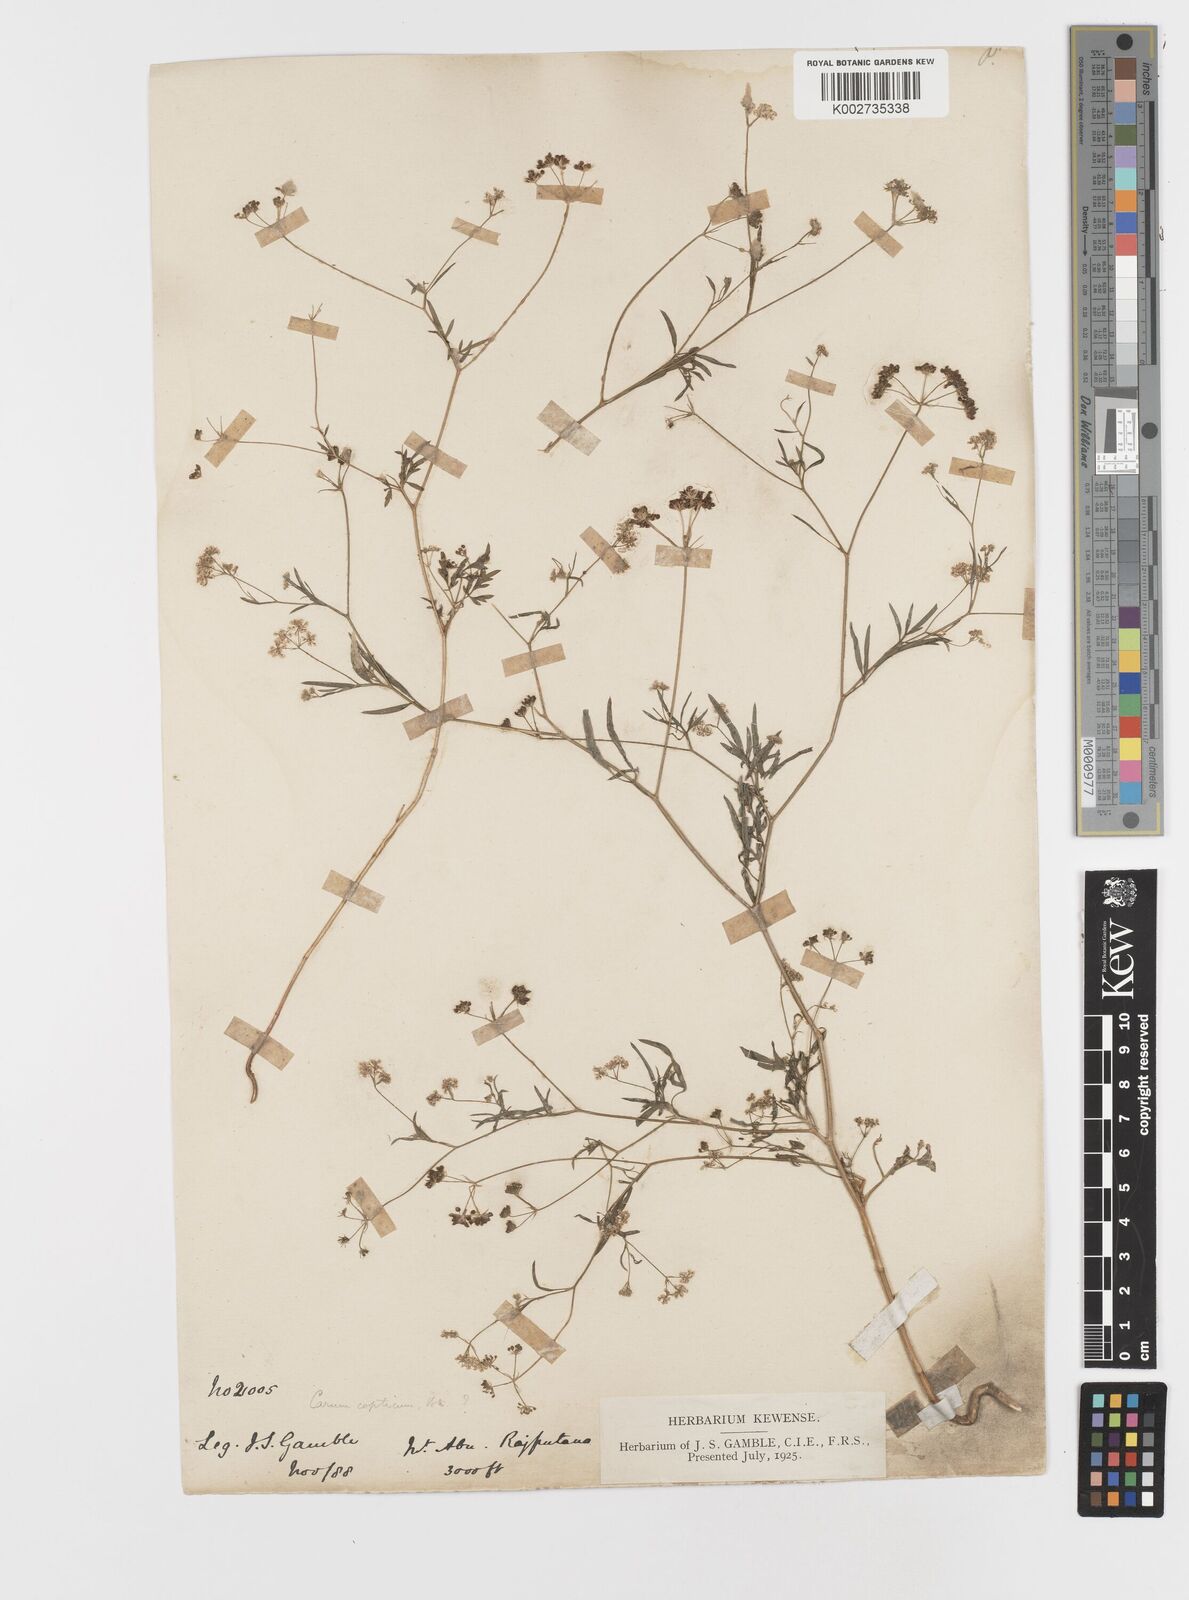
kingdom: Plantae
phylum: Tracheophyta
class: Magnoliopsida
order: Apiales
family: Apiaceae
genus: Trachyspermum
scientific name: Trachyspermum ammi
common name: Ajowan
